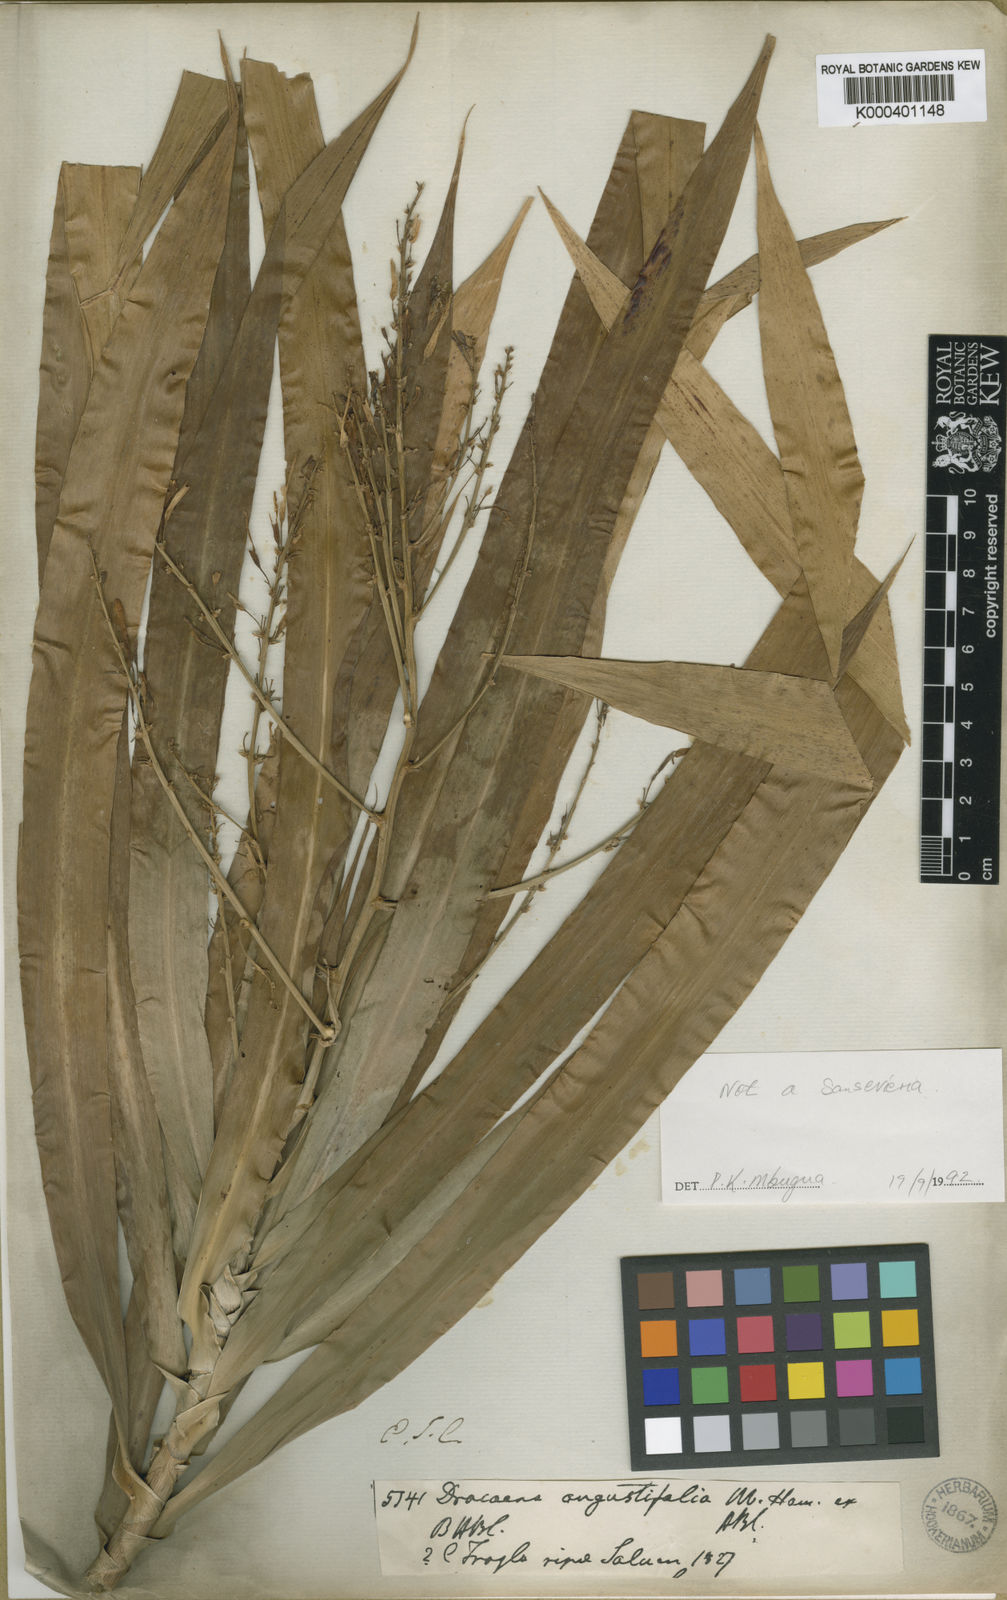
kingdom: Plantae
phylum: Tracheophyta
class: Liliopsida
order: Asparagales
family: Asparagaceae
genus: Dracaena
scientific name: Dracaena angustifolia
